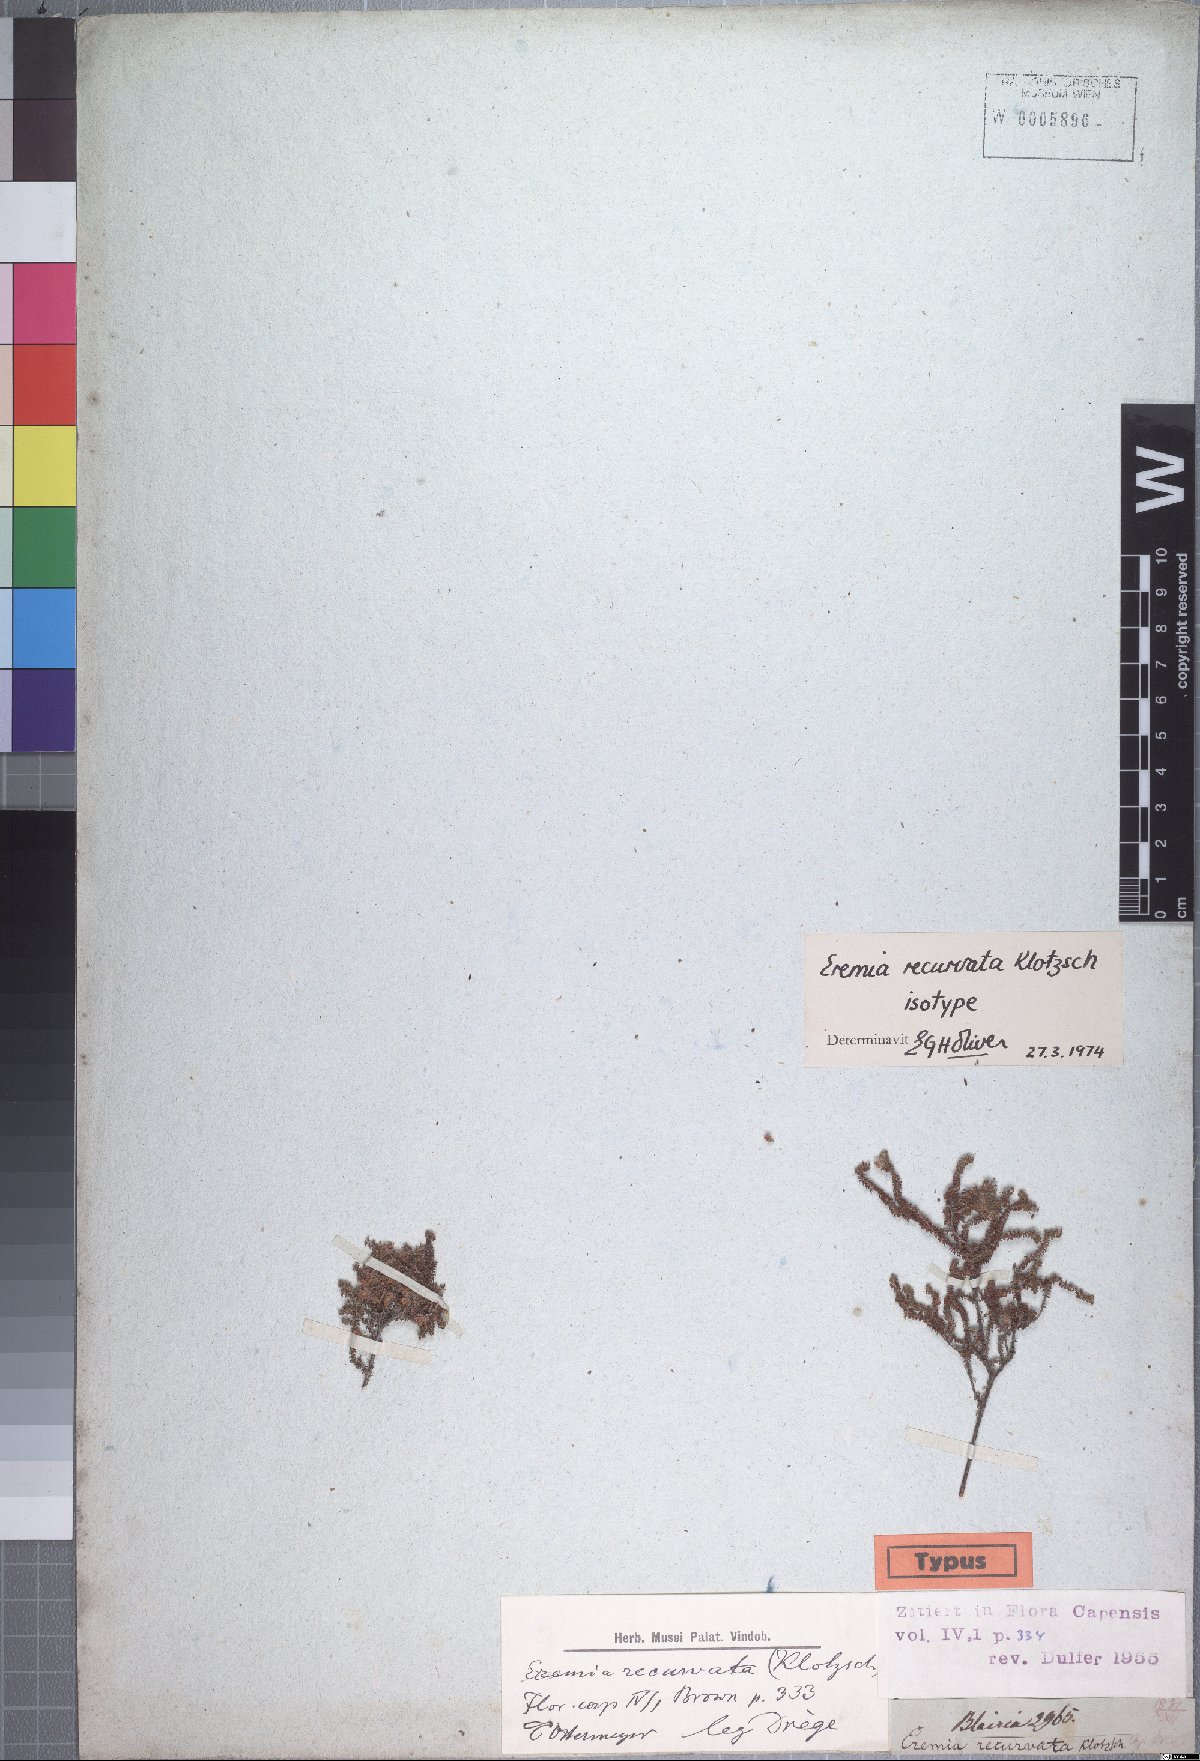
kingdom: Plantae
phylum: Tracheophyta
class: Magnoliopsida
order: Ericales
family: Ericaceae
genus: Erica
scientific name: Erica recurvifolia
